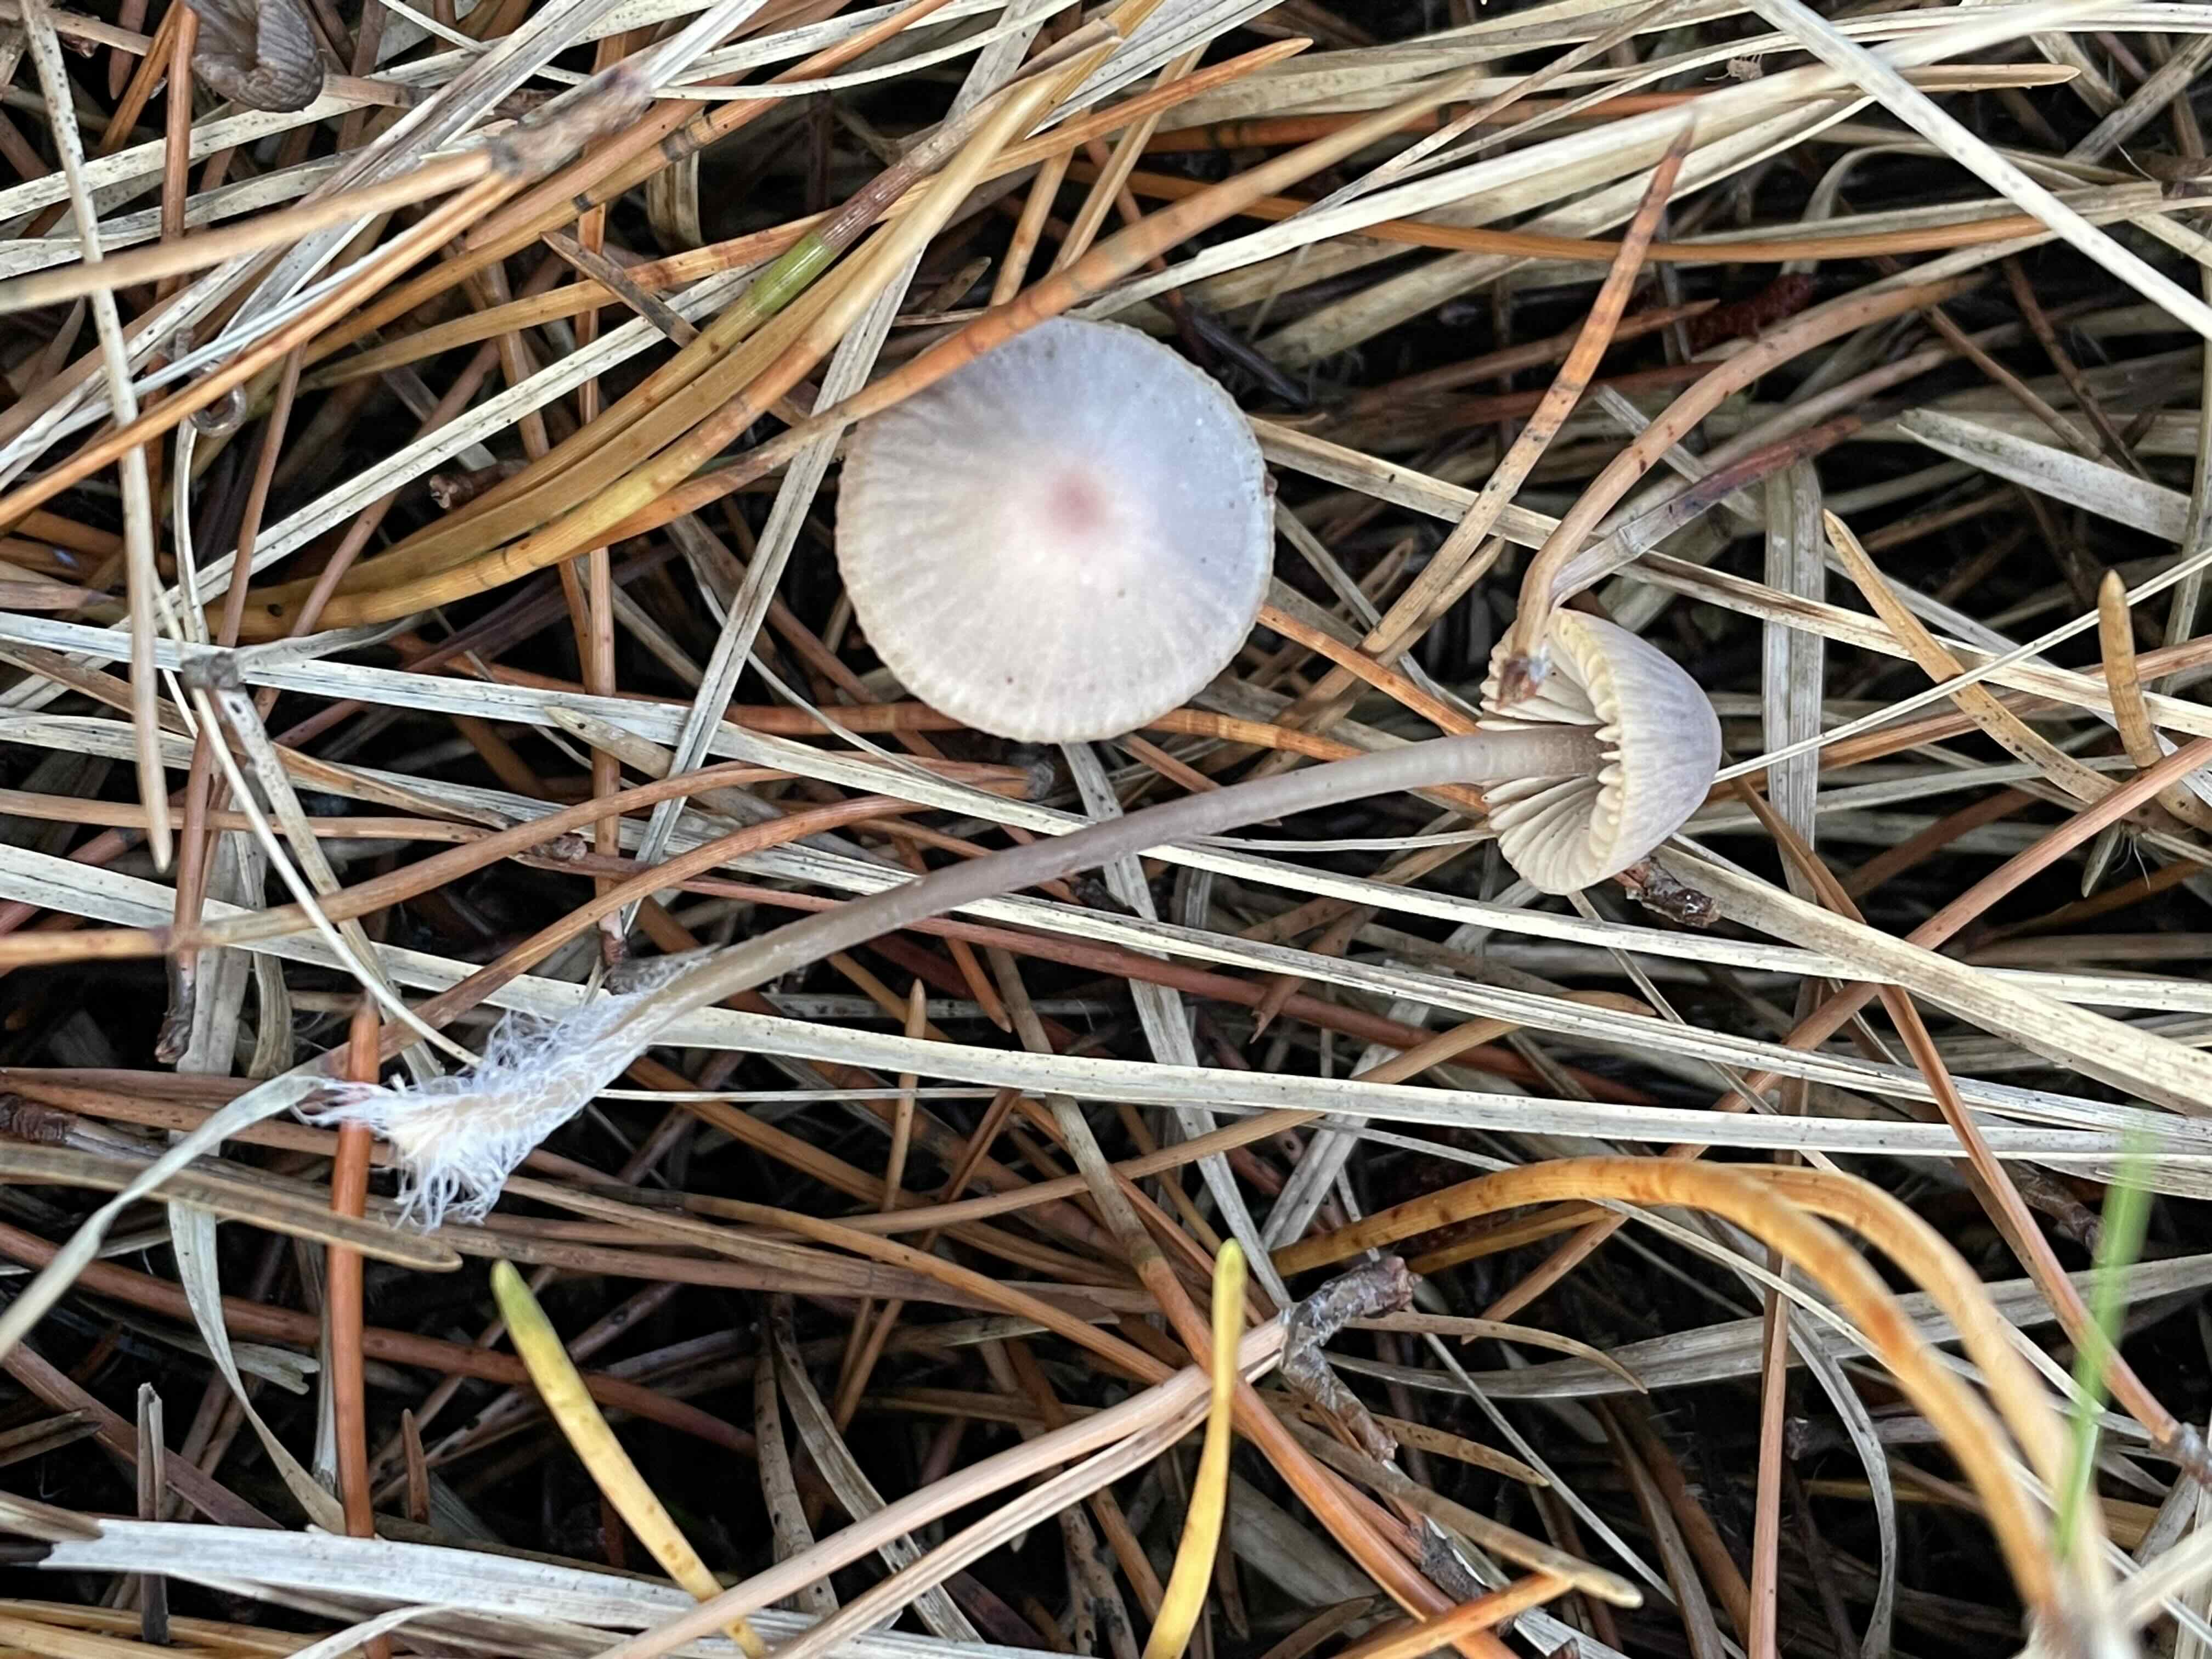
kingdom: Fungi
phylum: Basidiomycota
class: Agaricomycetes
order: Agaricales
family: Mycenaceae
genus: Mycena
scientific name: Mycena leptocephala
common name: klor-huesvamp
